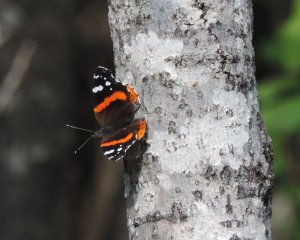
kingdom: Animalia
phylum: Arthropoda
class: Insecta
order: Lepidoptera
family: Nymphalidae
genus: Vanessa
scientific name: Vanessa atalanta
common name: Red Admiral
